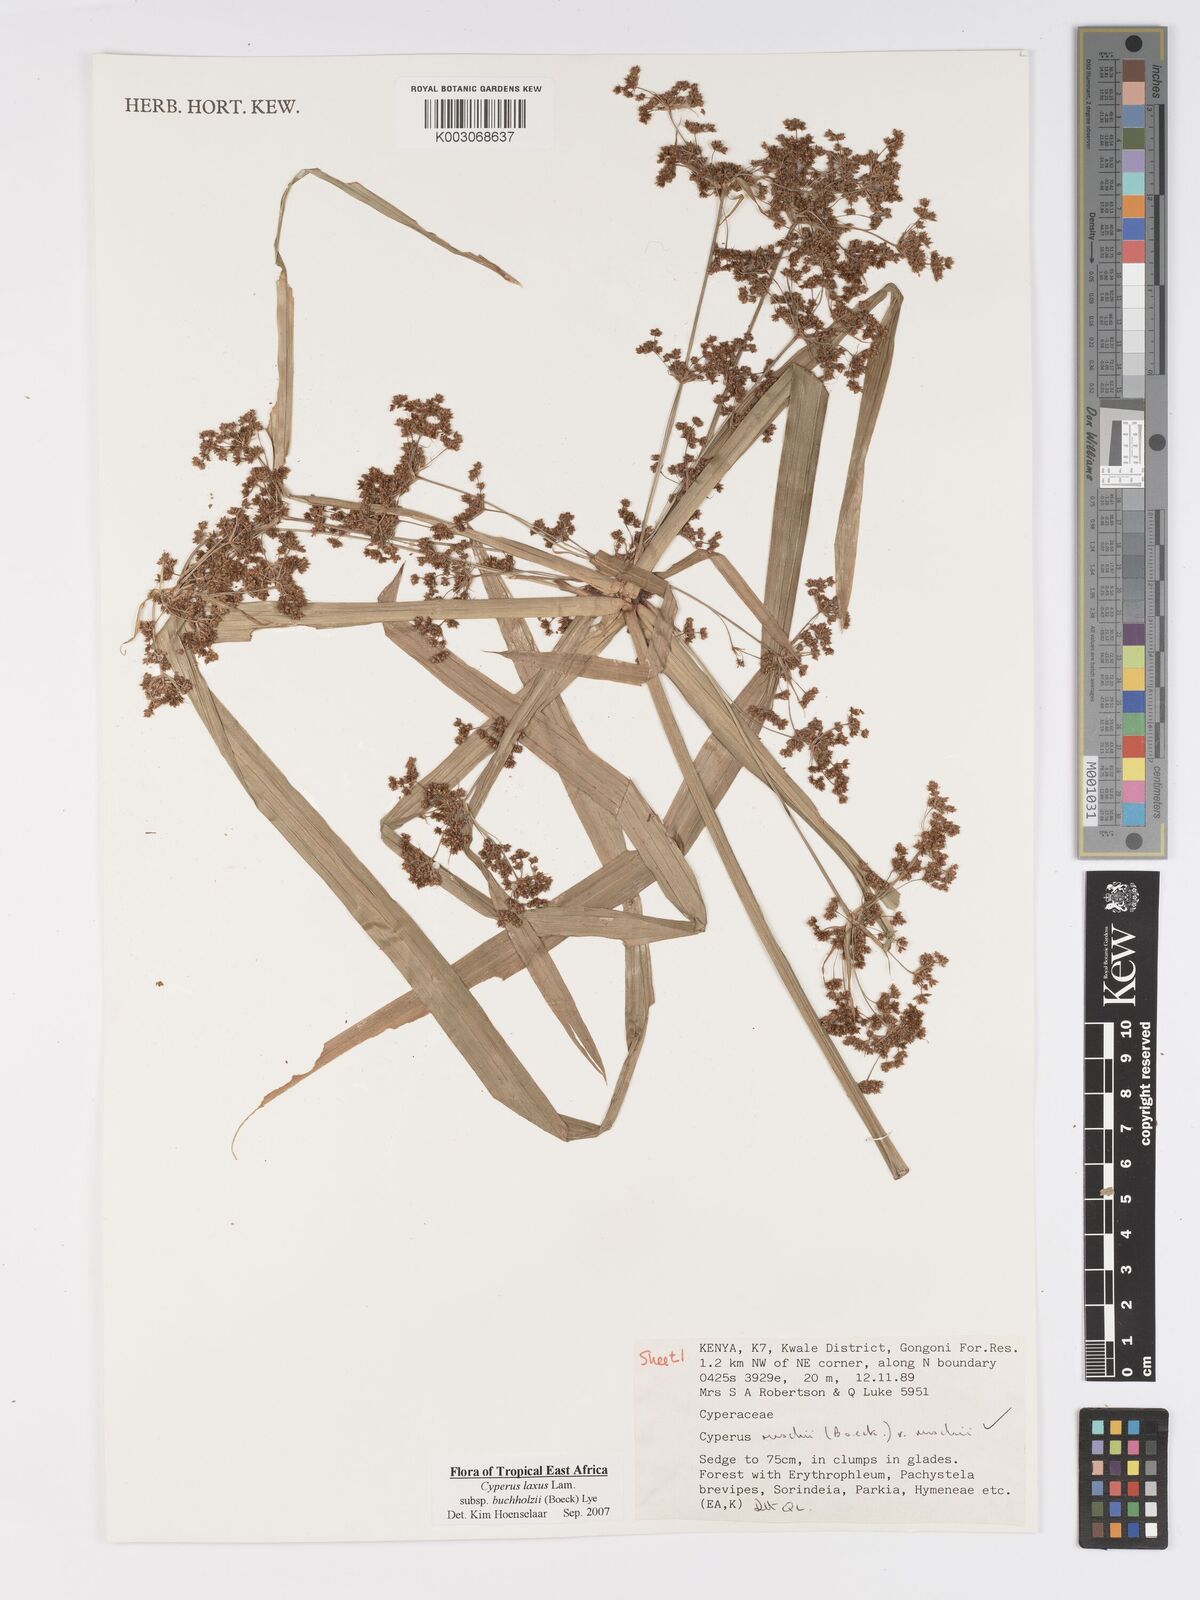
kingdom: Plantae
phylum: Tracheophyta
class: Liliopsida
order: Poales
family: Cyperaceae
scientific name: Cyperaceae
